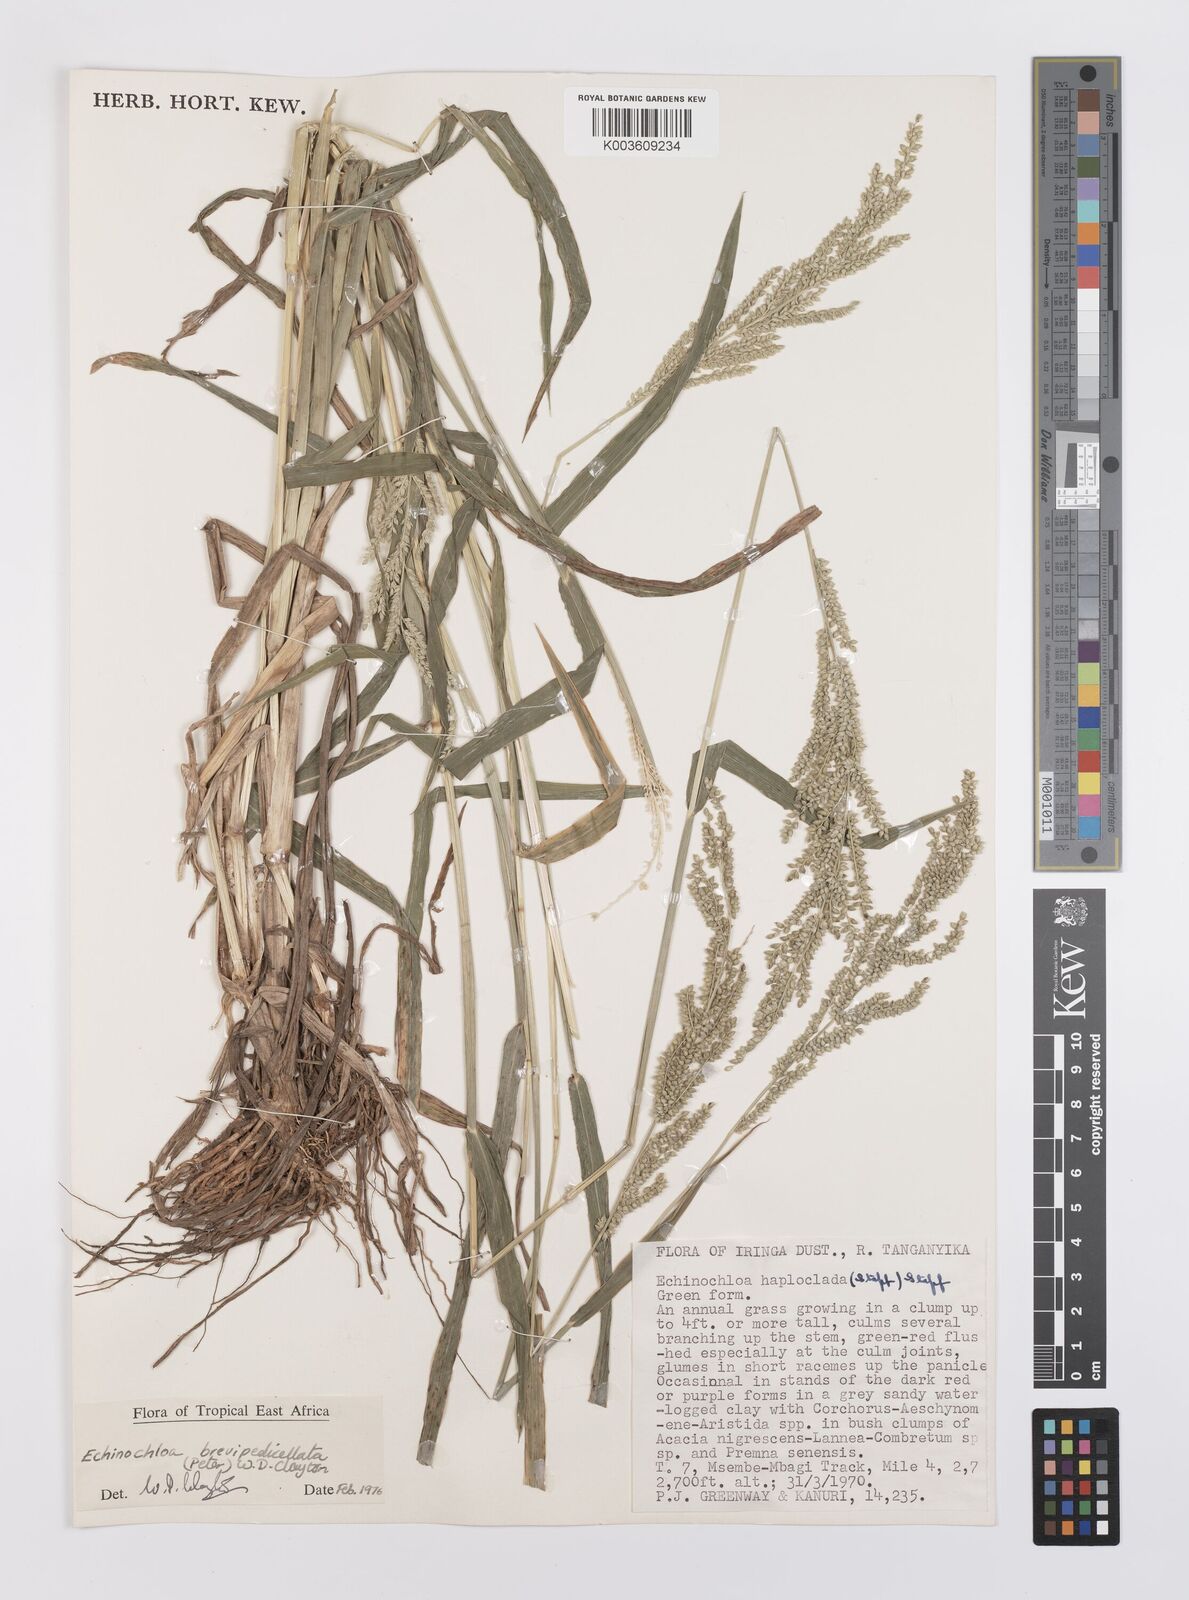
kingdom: Plantae
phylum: Tracheophyta
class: Liliopsida
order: Poales
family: Poaceae
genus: Echinochloa
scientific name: Echinochloa brevipedicellata
